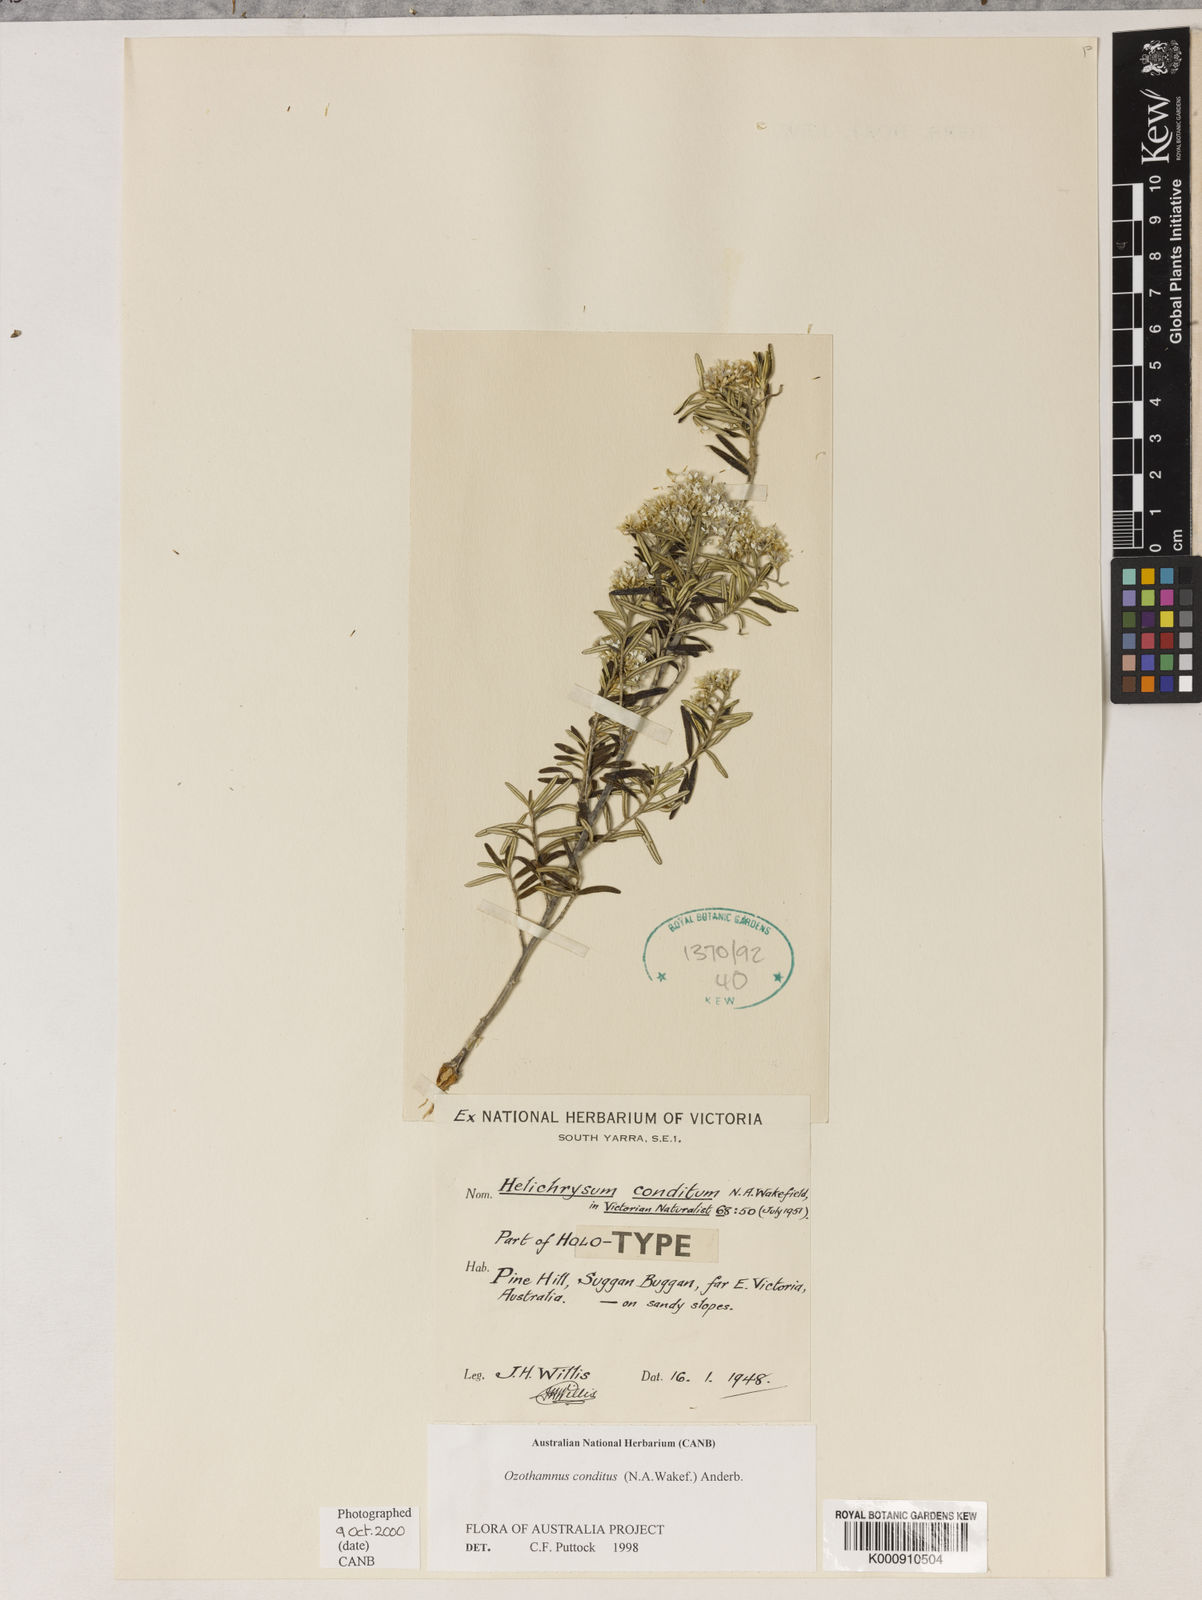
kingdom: Plantae
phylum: Tracheophyta
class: Magnoliopsida
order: Asterales
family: Asteraceae
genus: Ozothamnus
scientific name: Ozothamnus conditus
